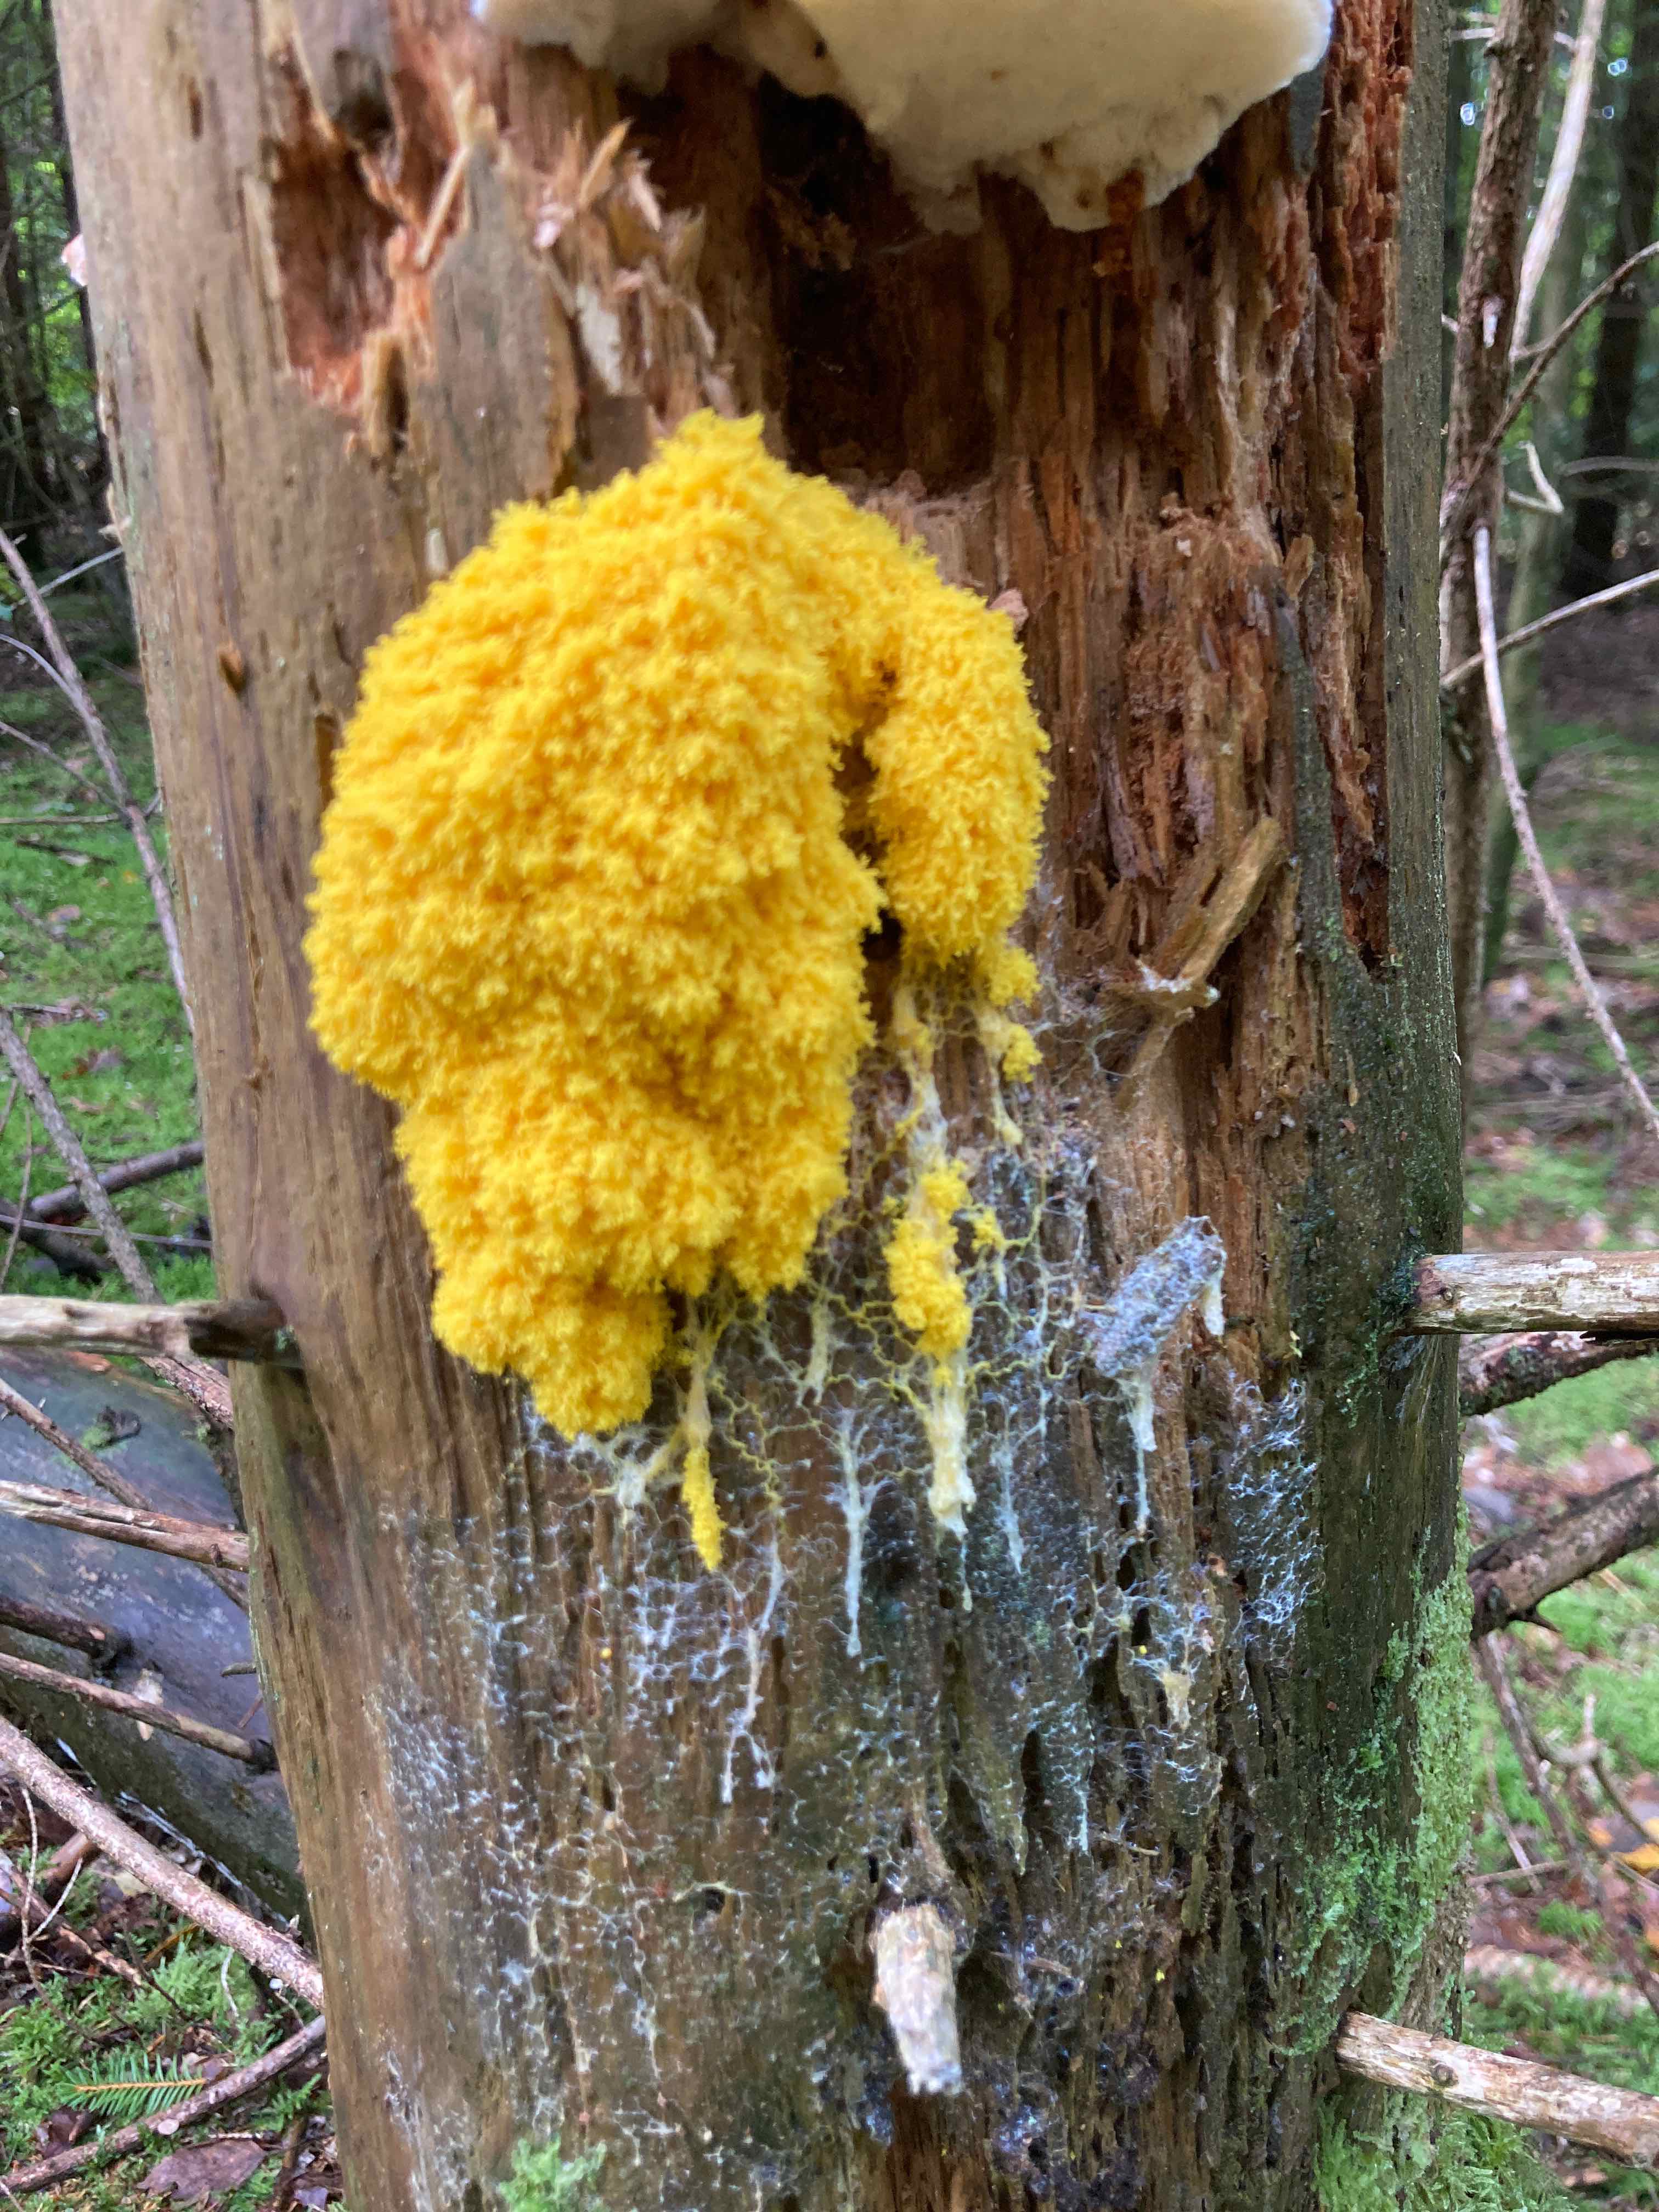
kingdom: Protozoa
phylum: Mycetozoa
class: Myxomycetes
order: Physarales
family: Physaraceae
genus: Fuligo
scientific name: Fuligo septica
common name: gul troldsmør
